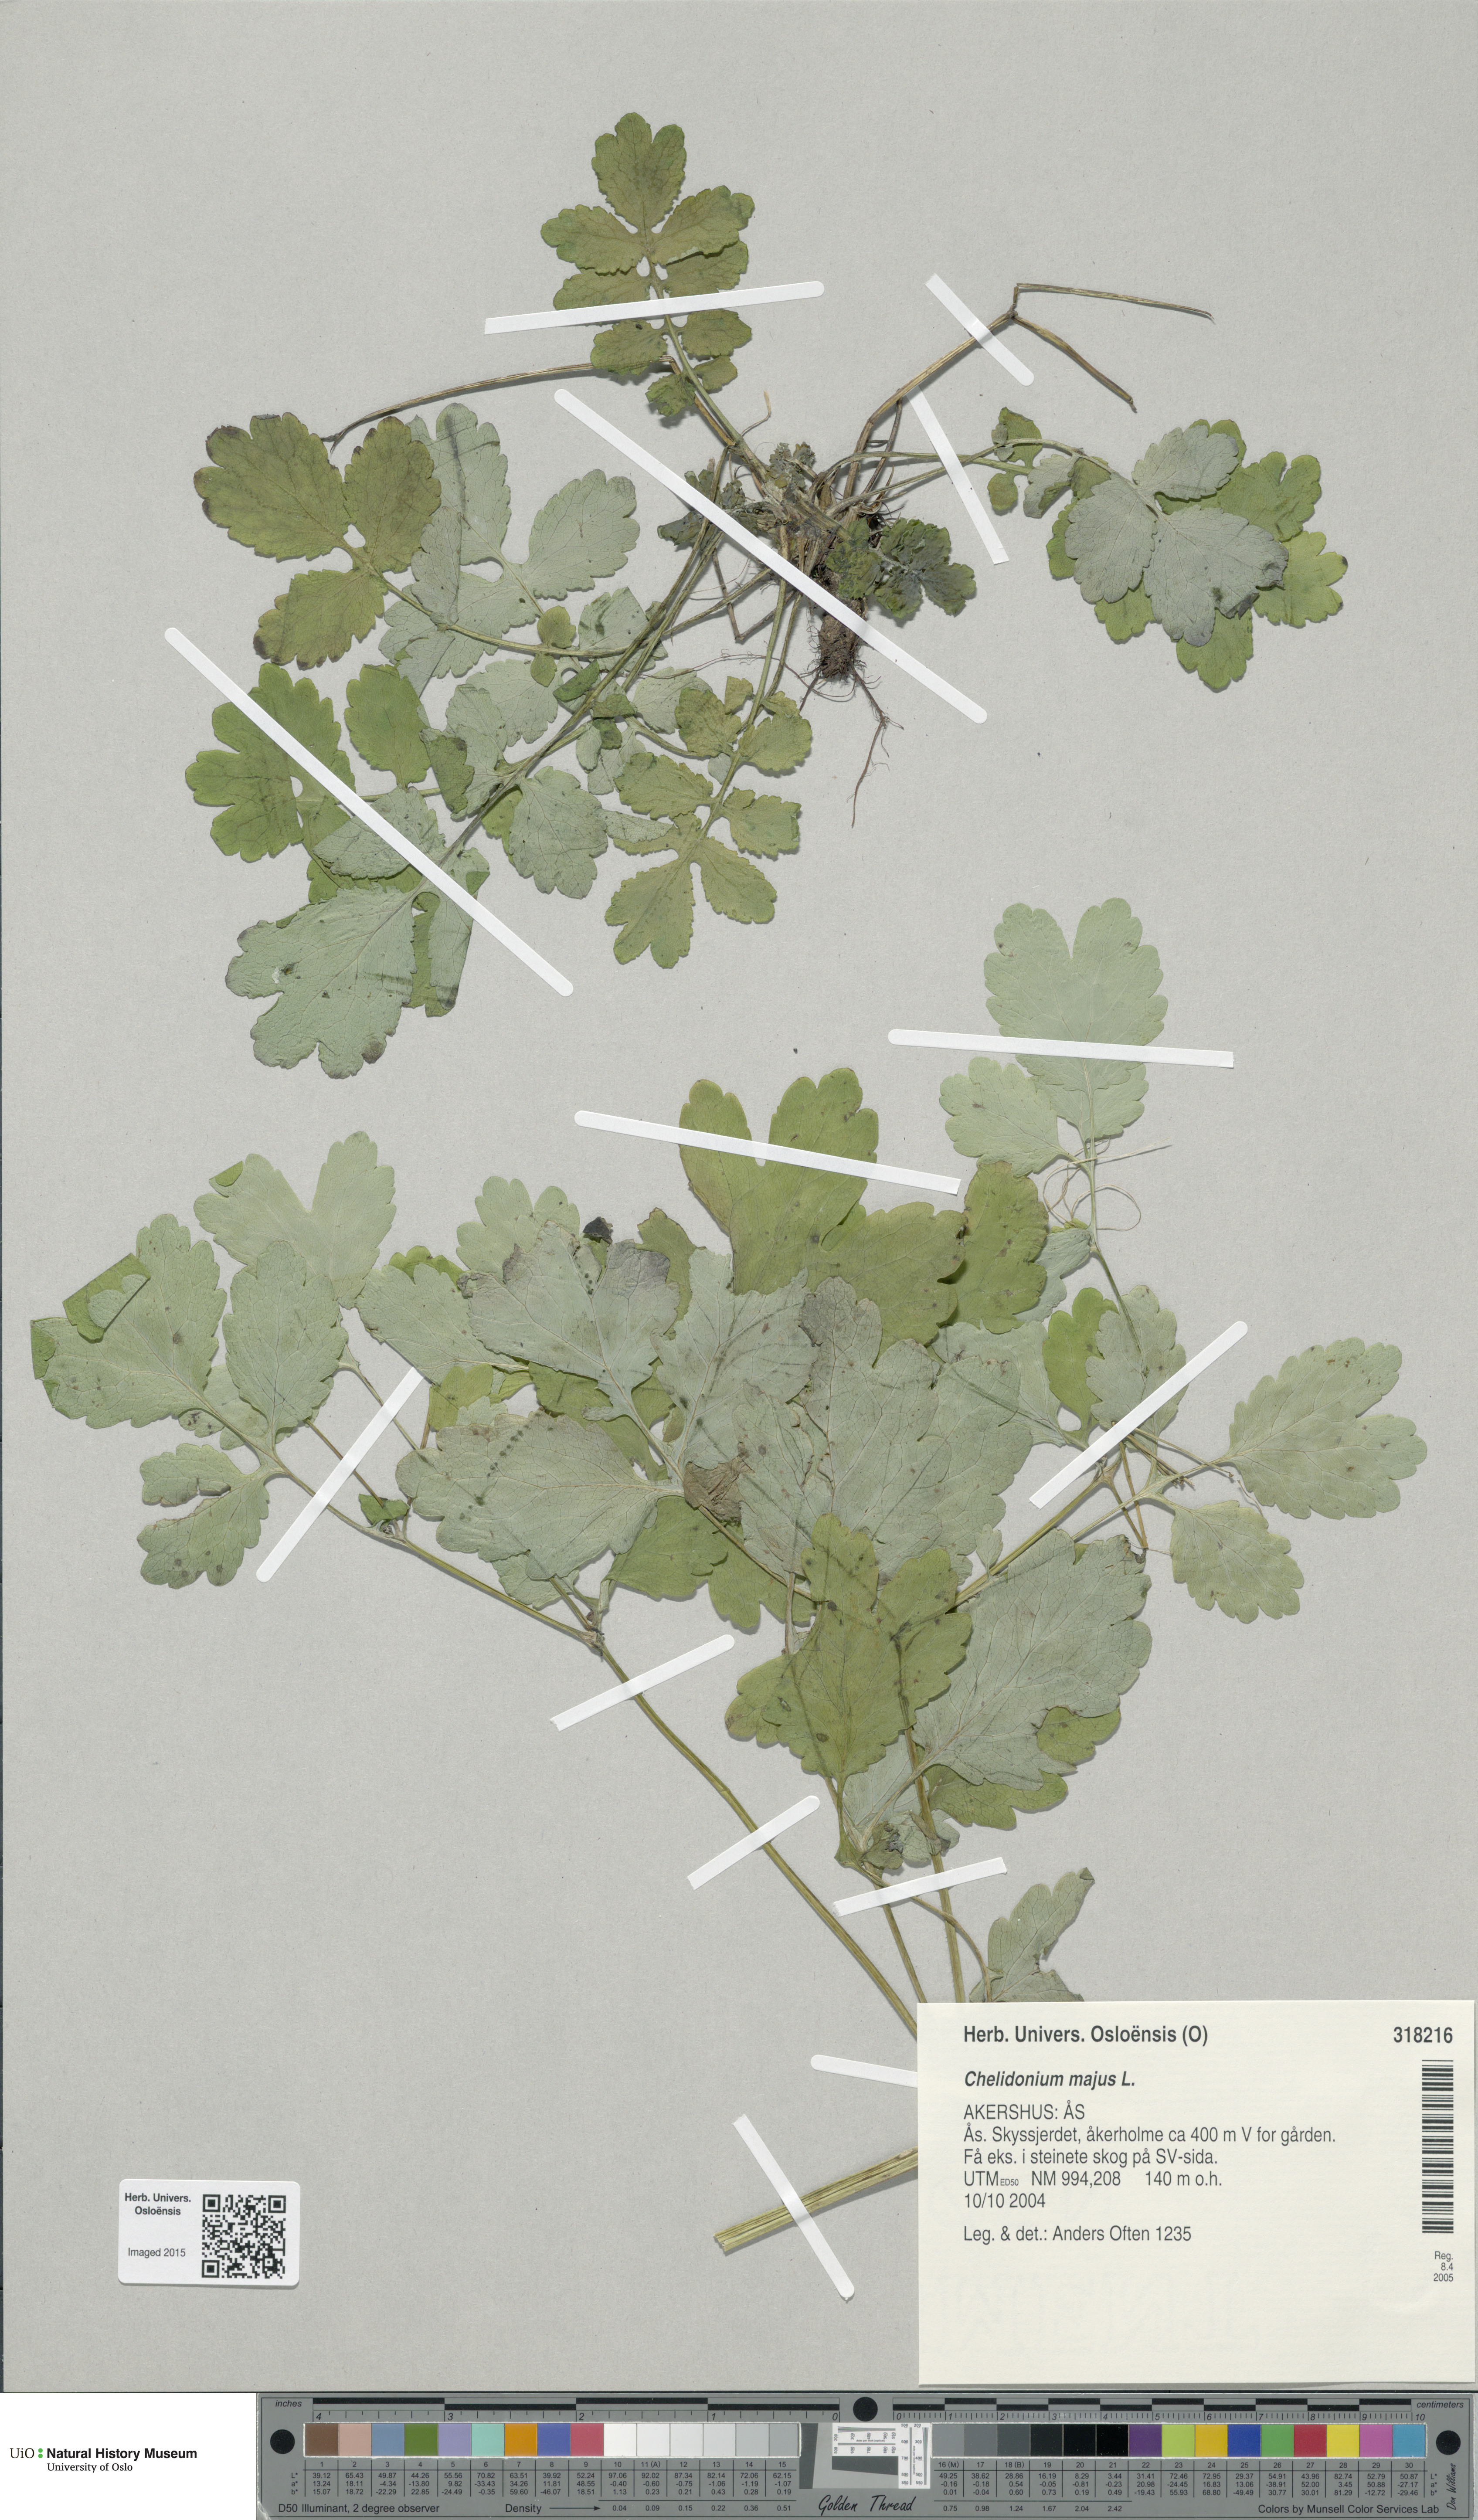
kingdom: Plantae
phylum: Tracheophyta
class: Magnoliopsida
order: Ranunculales
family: Papaveraceae
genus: Chelidonium
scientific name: Chelidonium majus
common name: Greater celandine
